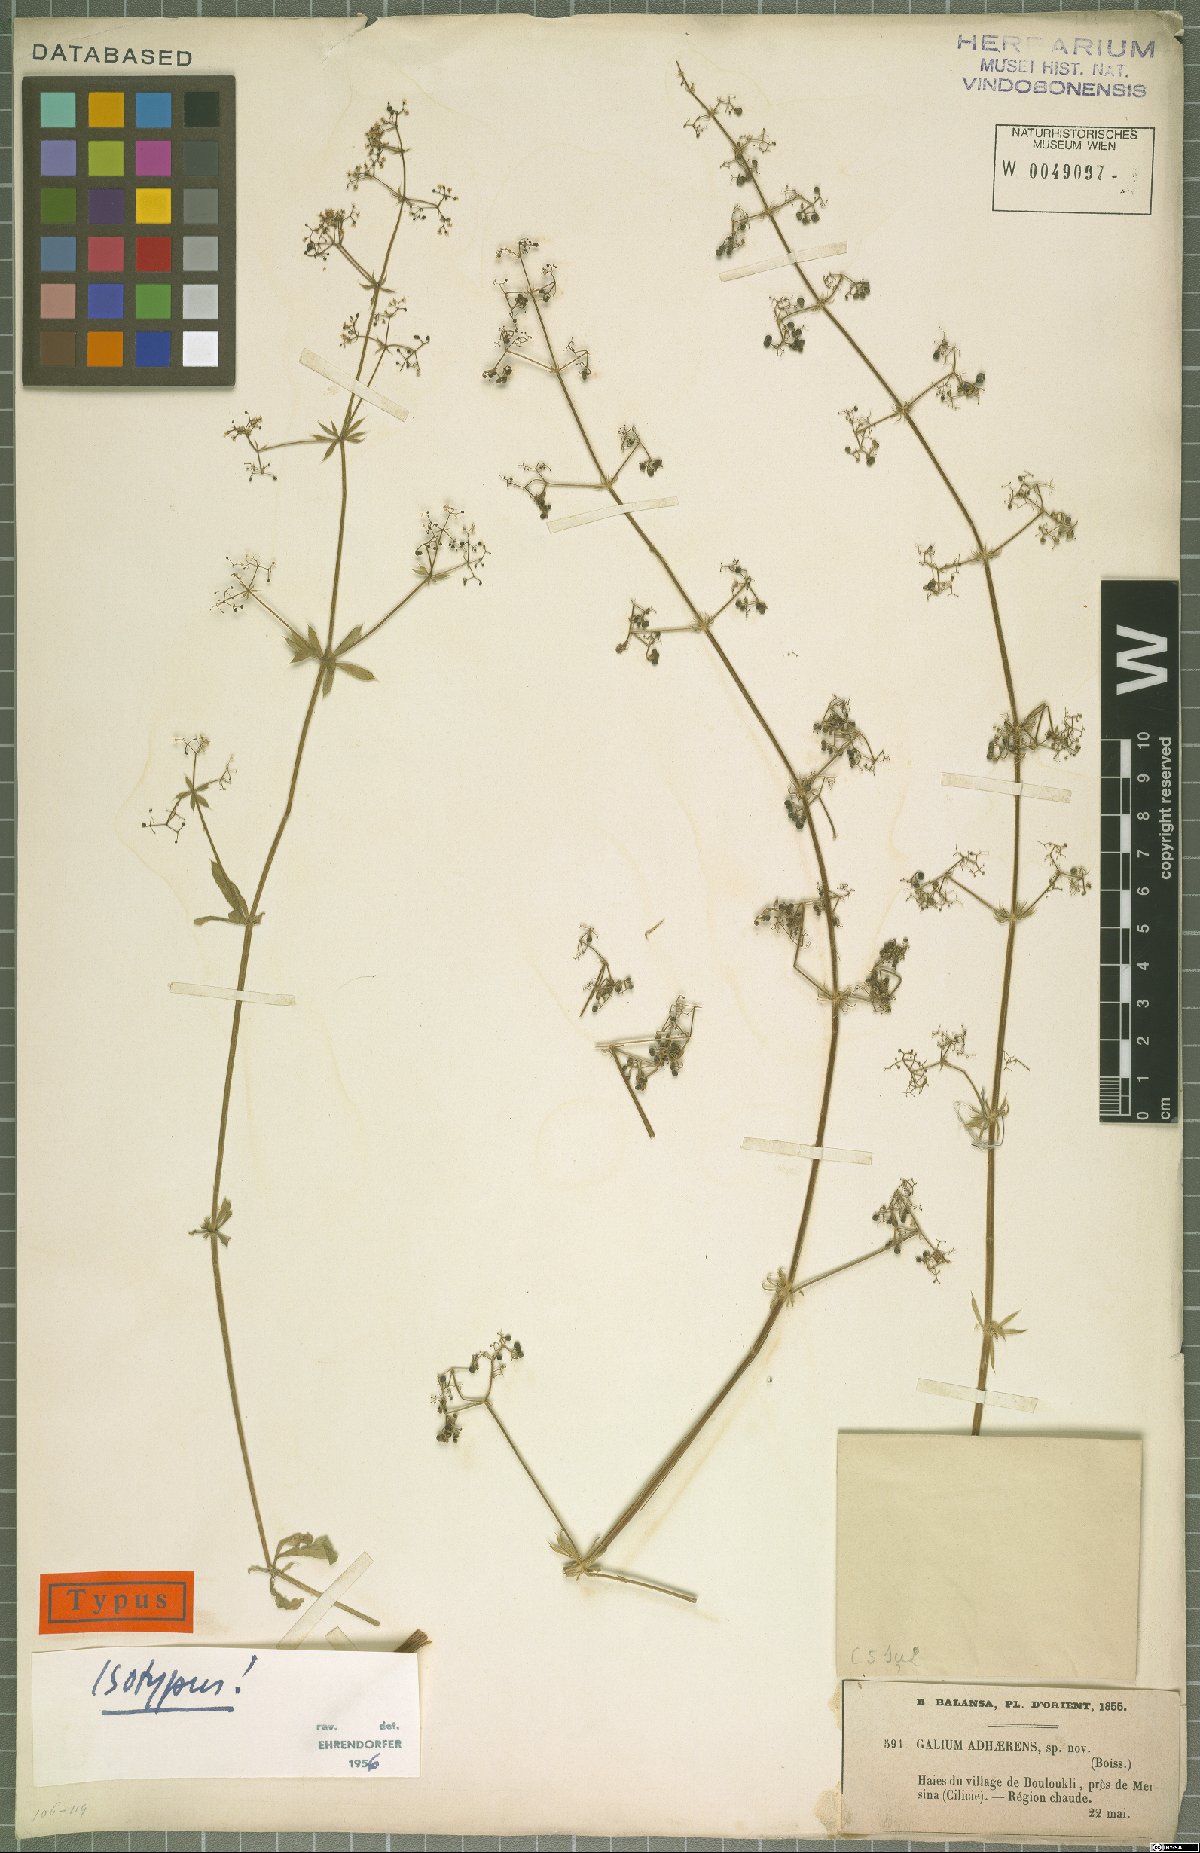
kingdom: Plantae
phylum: Tracheophyta
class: Magnoliopsida
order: Gentianales
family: Rubiaceae
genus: Galium
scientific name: Galium adhaerens
